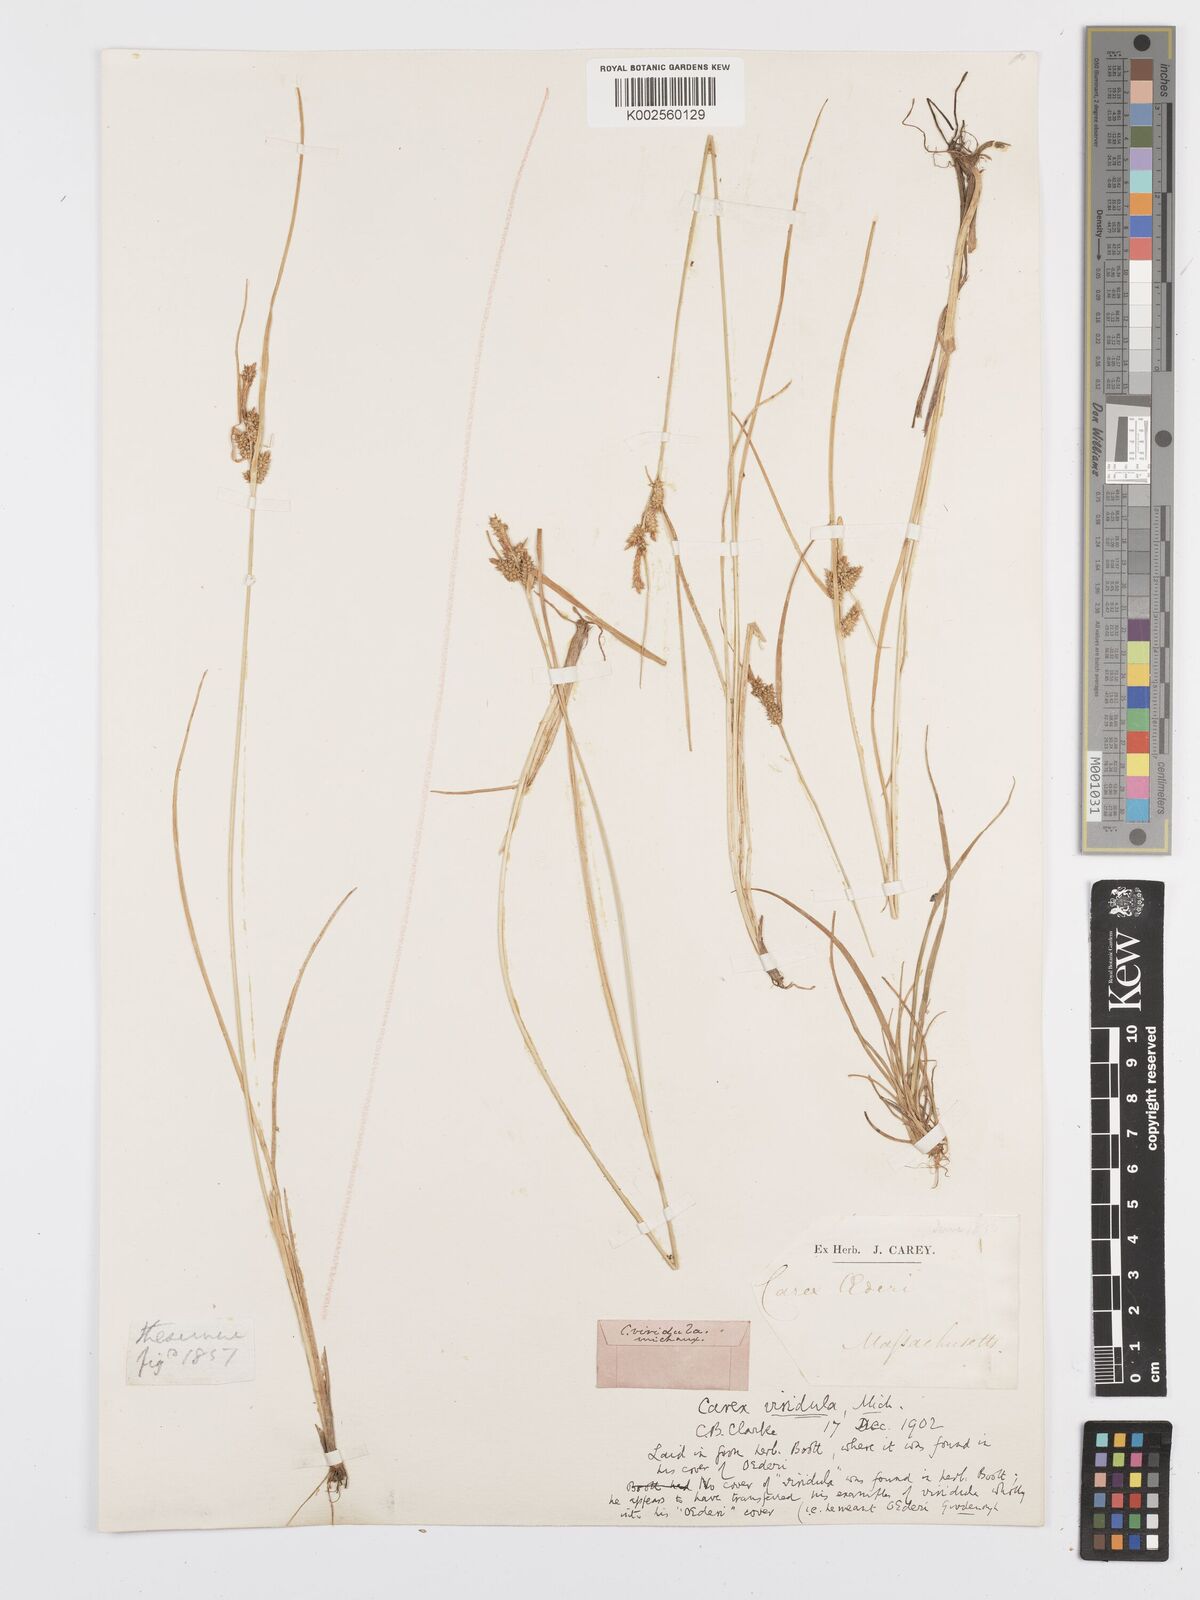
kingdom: Plantae
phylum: Tracheophyta
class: Liliopsida
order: Poales
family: Cyperaceae
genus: Carex
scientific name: Carex oederi
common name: Common & small-fruited yellow-sedge
